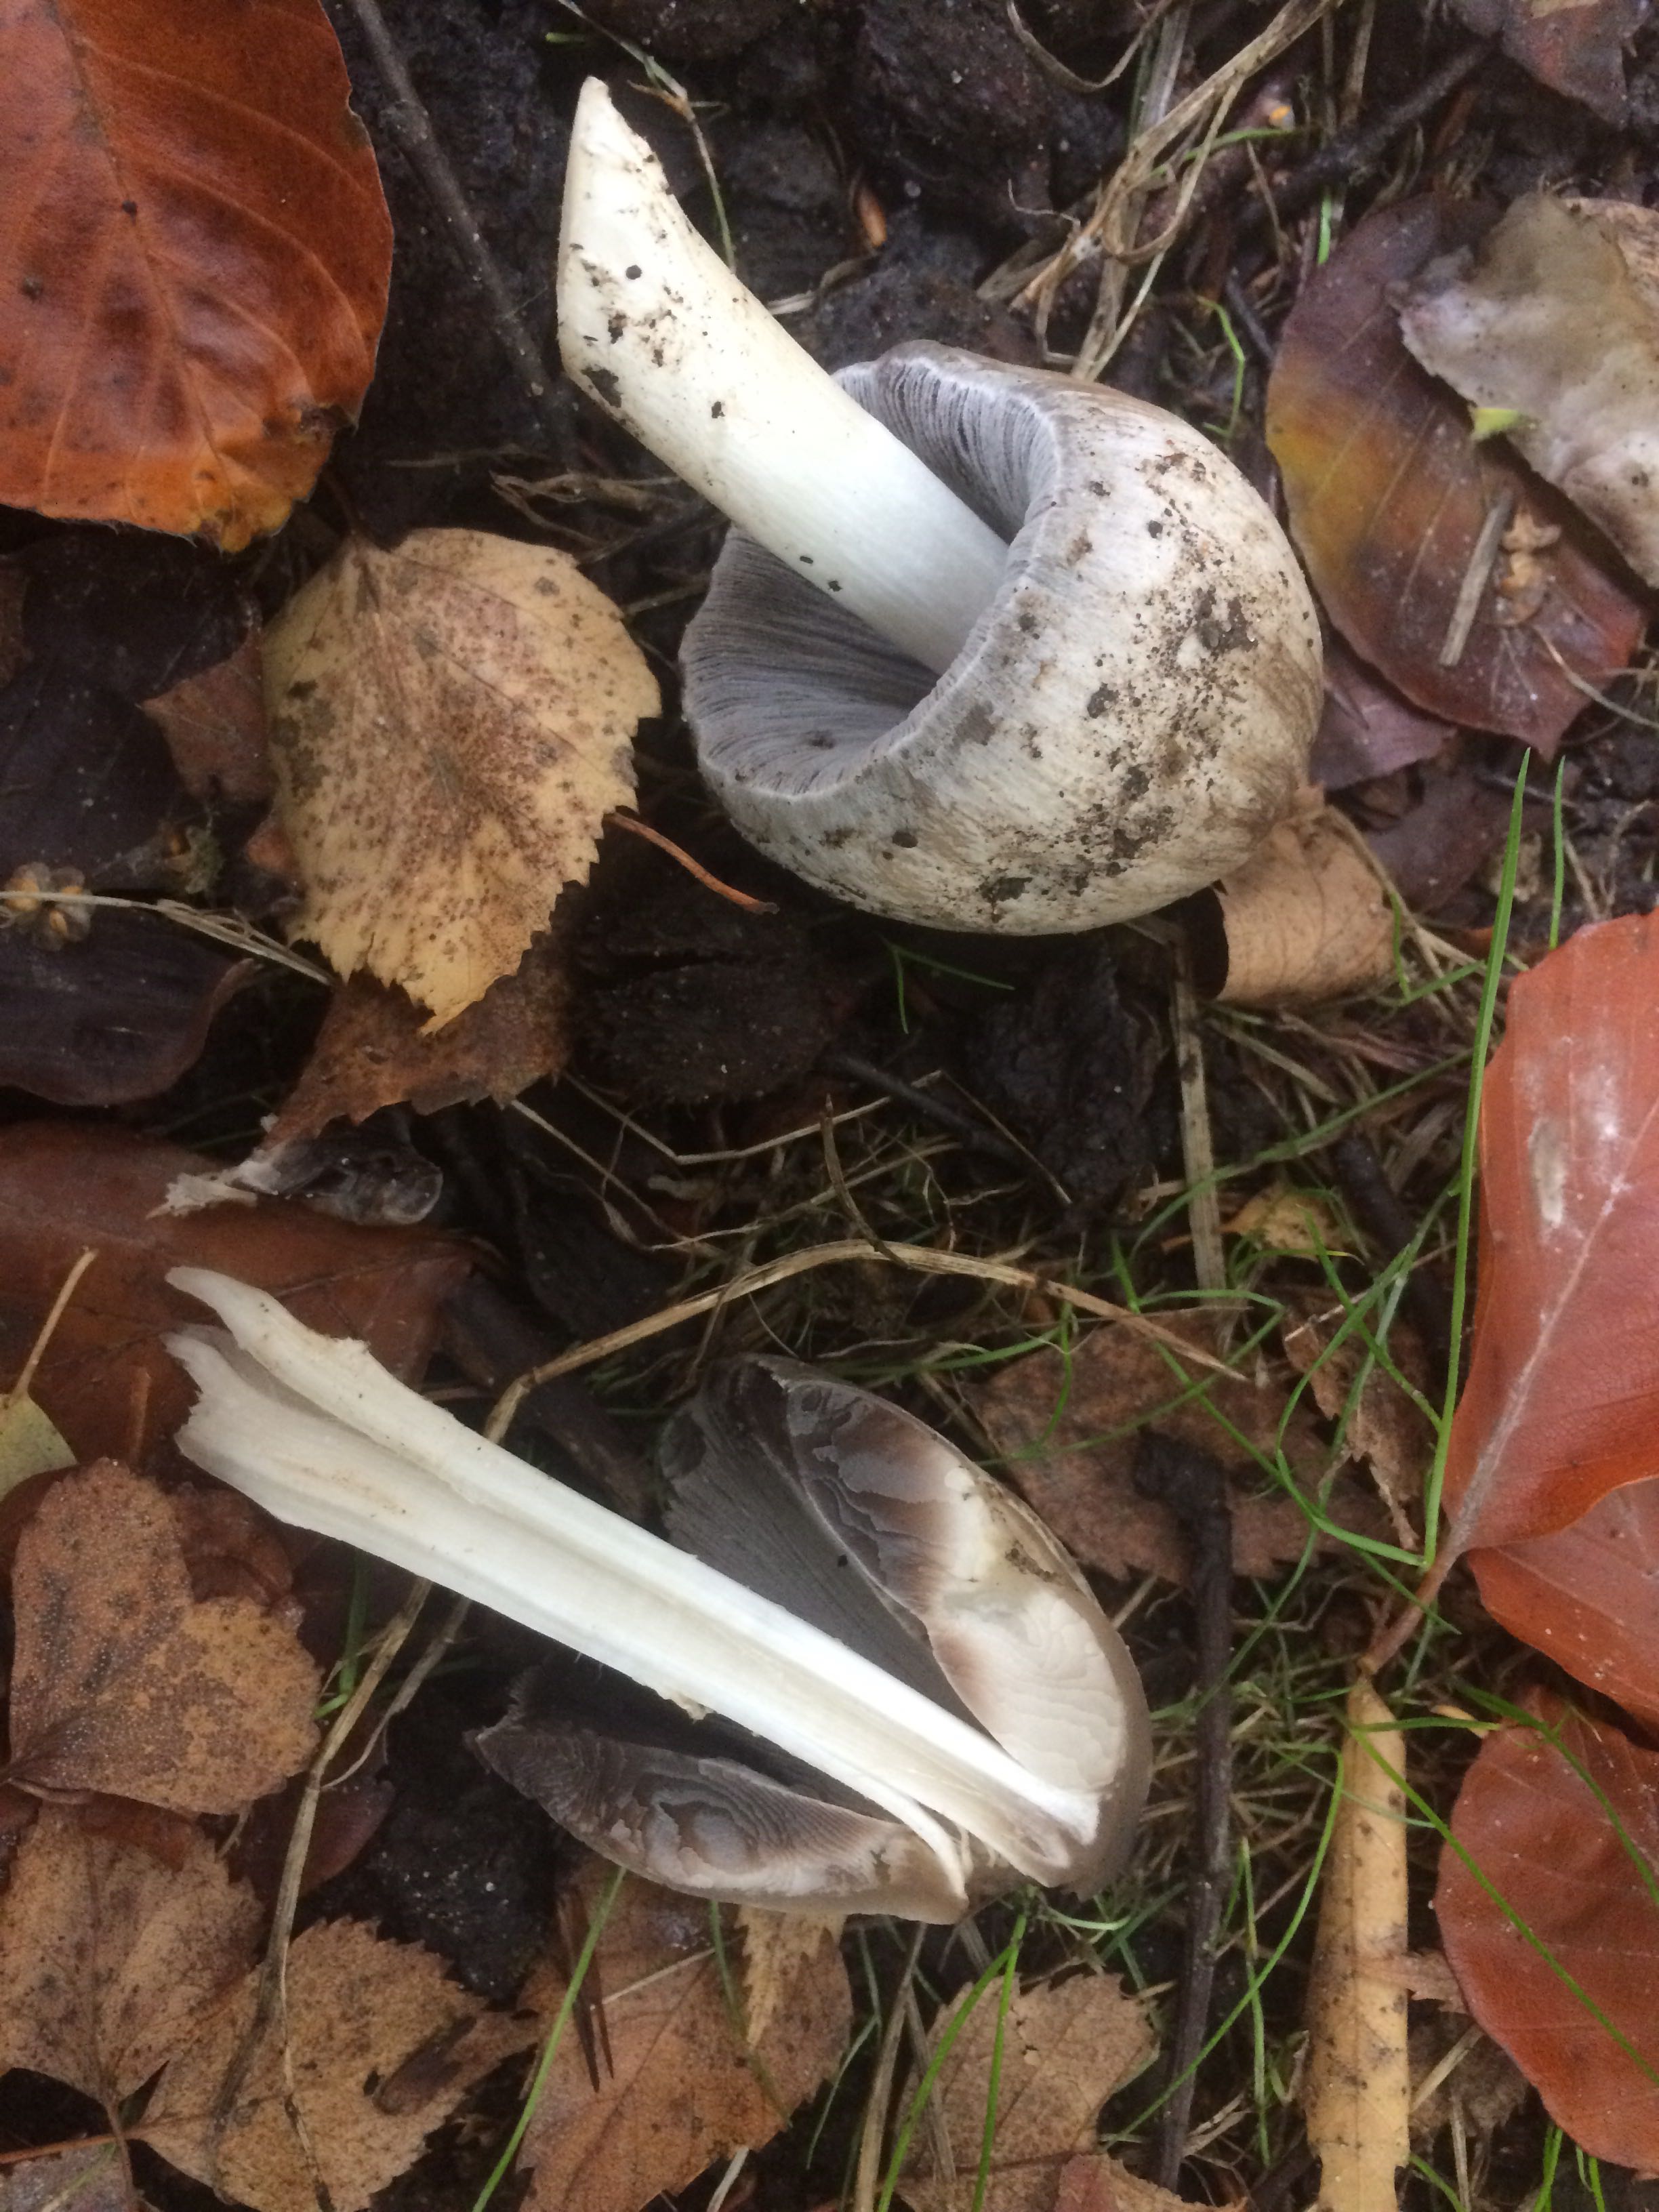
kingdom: Fungi
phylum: Basidiomycota
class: Agaricomycetes
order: Agaricales
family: Psathyrellaceae
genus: Coprinopsis
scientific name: Coprinopsis atramentaria
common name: almindelig blækhat
